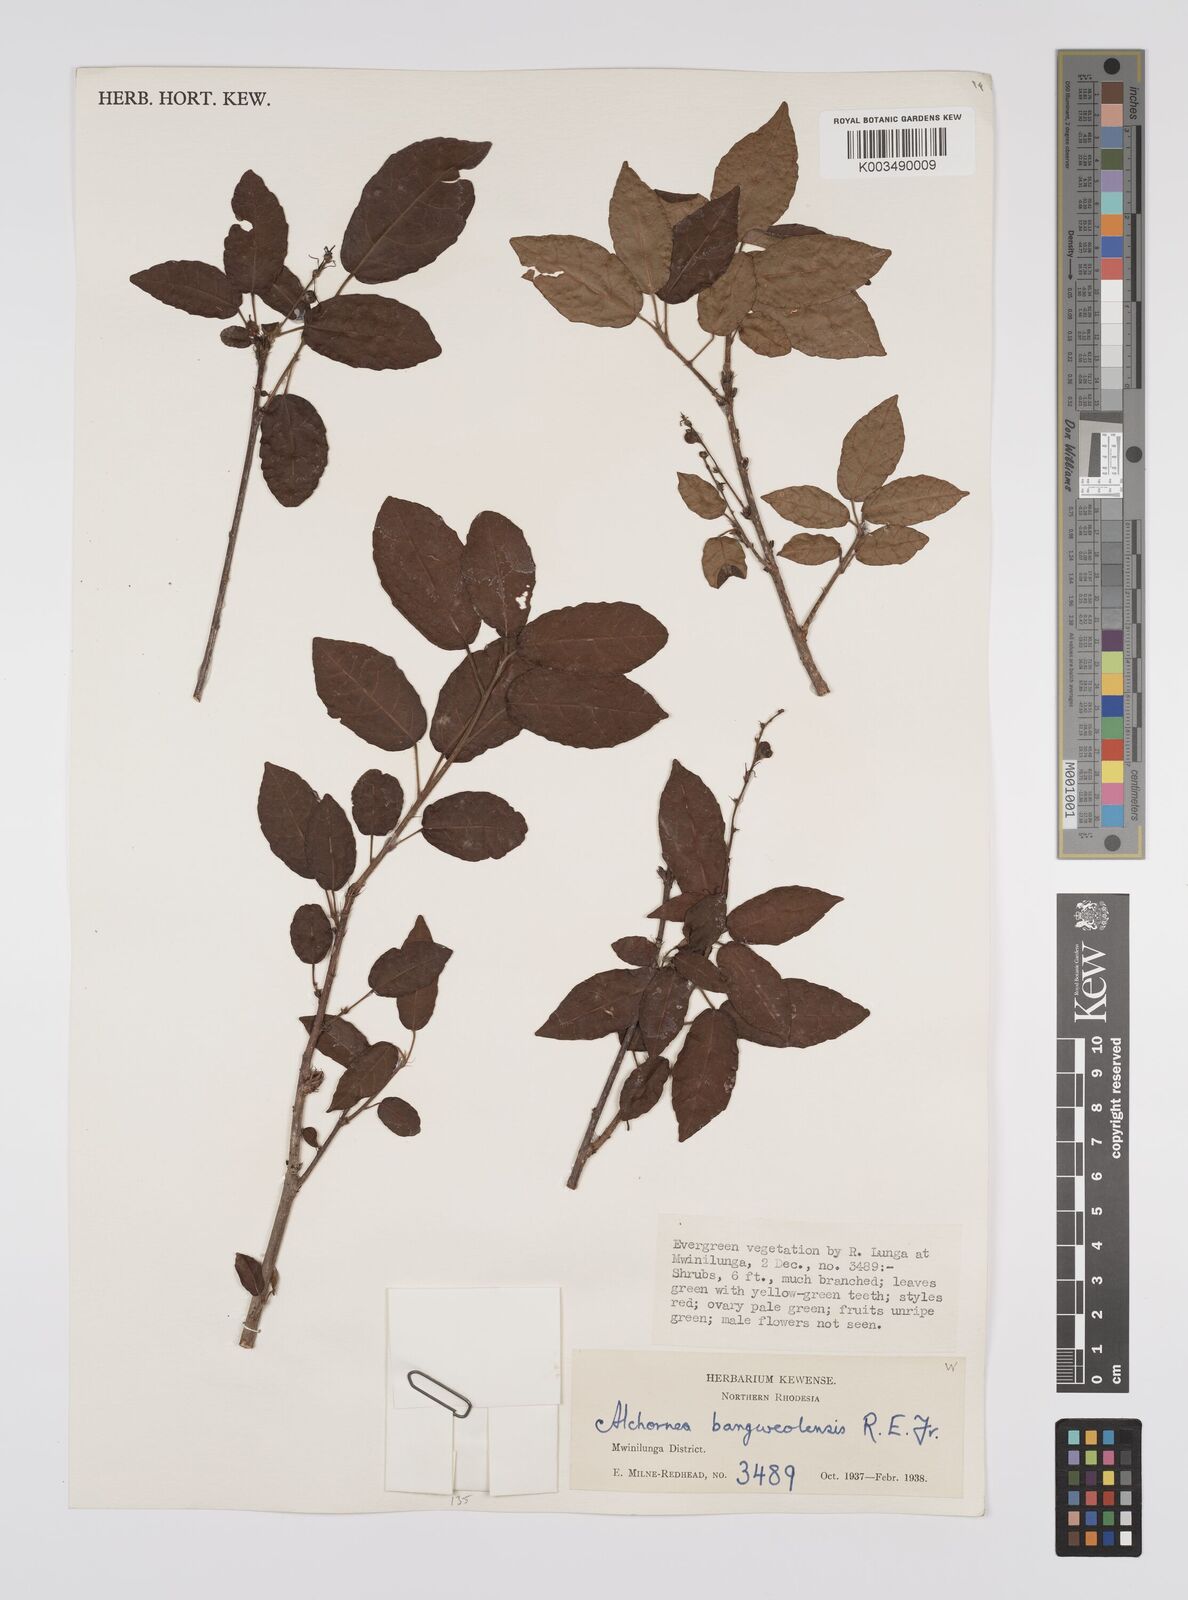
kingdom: Plantae
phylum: Tracheophyta
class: Magnoliopsida
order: Malpighiales
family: Euphorbiaceae
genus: Alchornea
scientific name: Alchornea yambuyaensis
